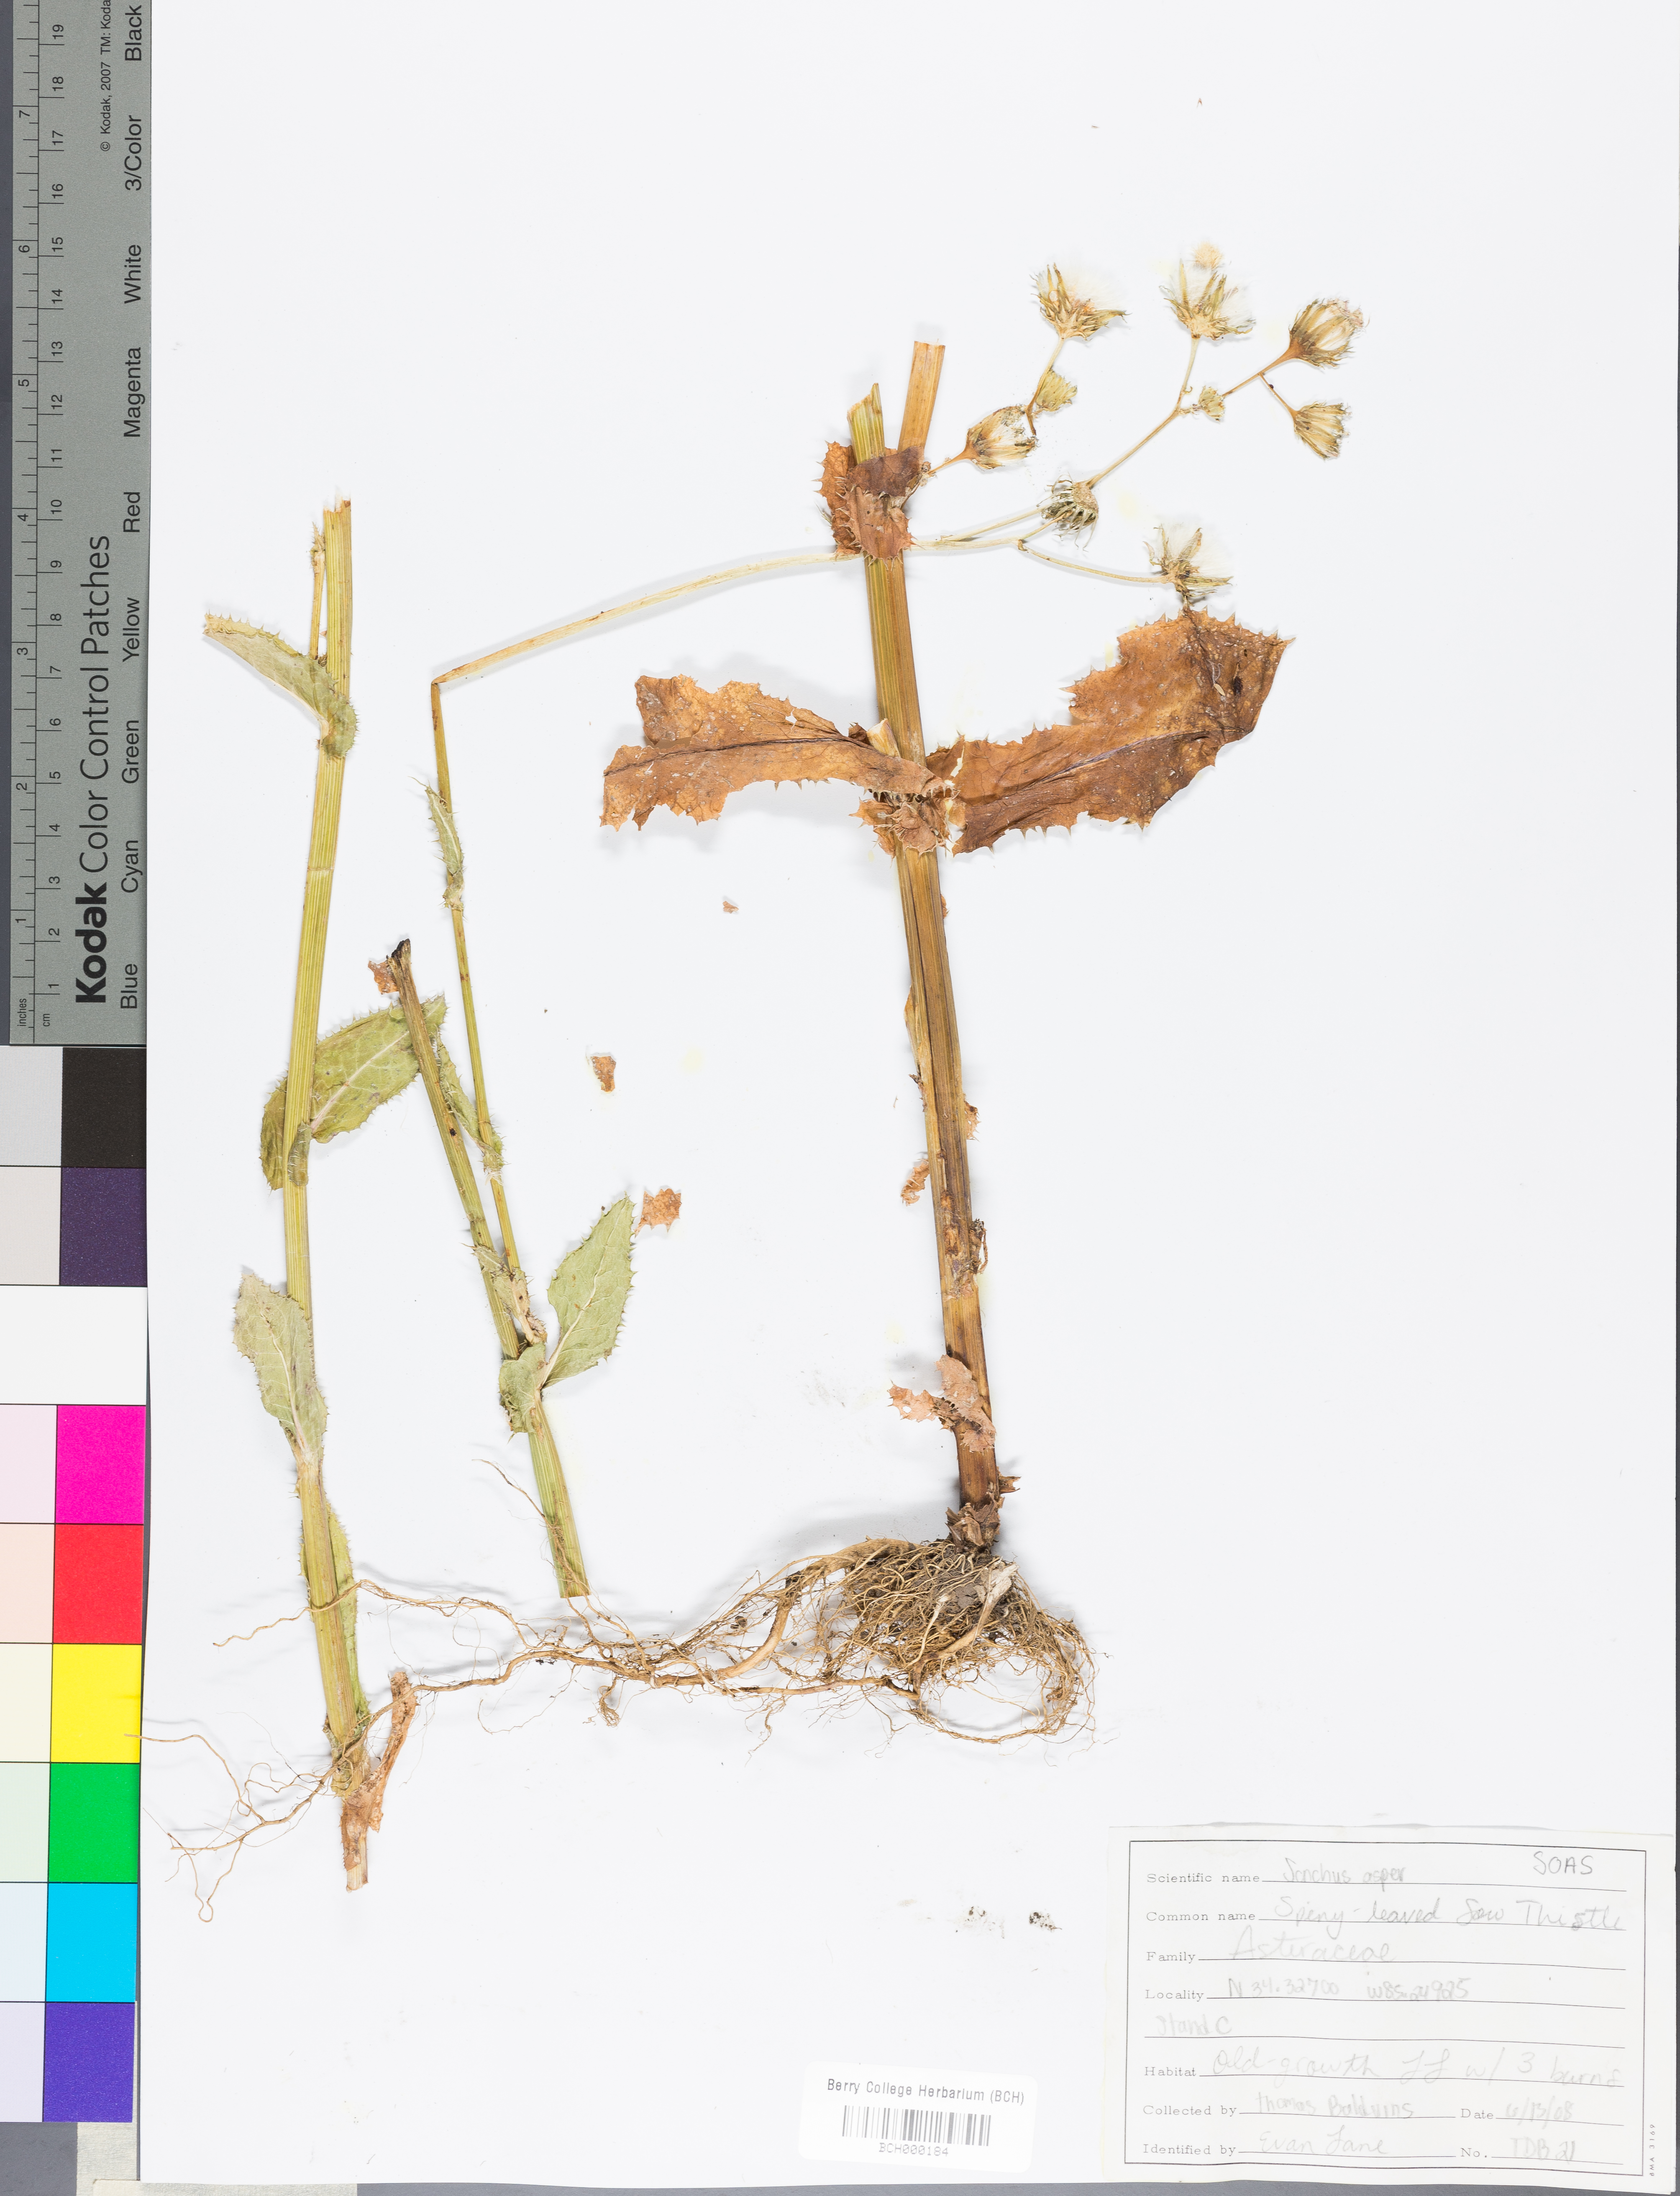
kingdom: Plantae
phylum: Tracheophyta
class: Magnoliopsida
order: Asterales
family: Asteraceae
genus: Sonchus
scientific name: Sonchus asper
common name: Prickly sow-thistle
